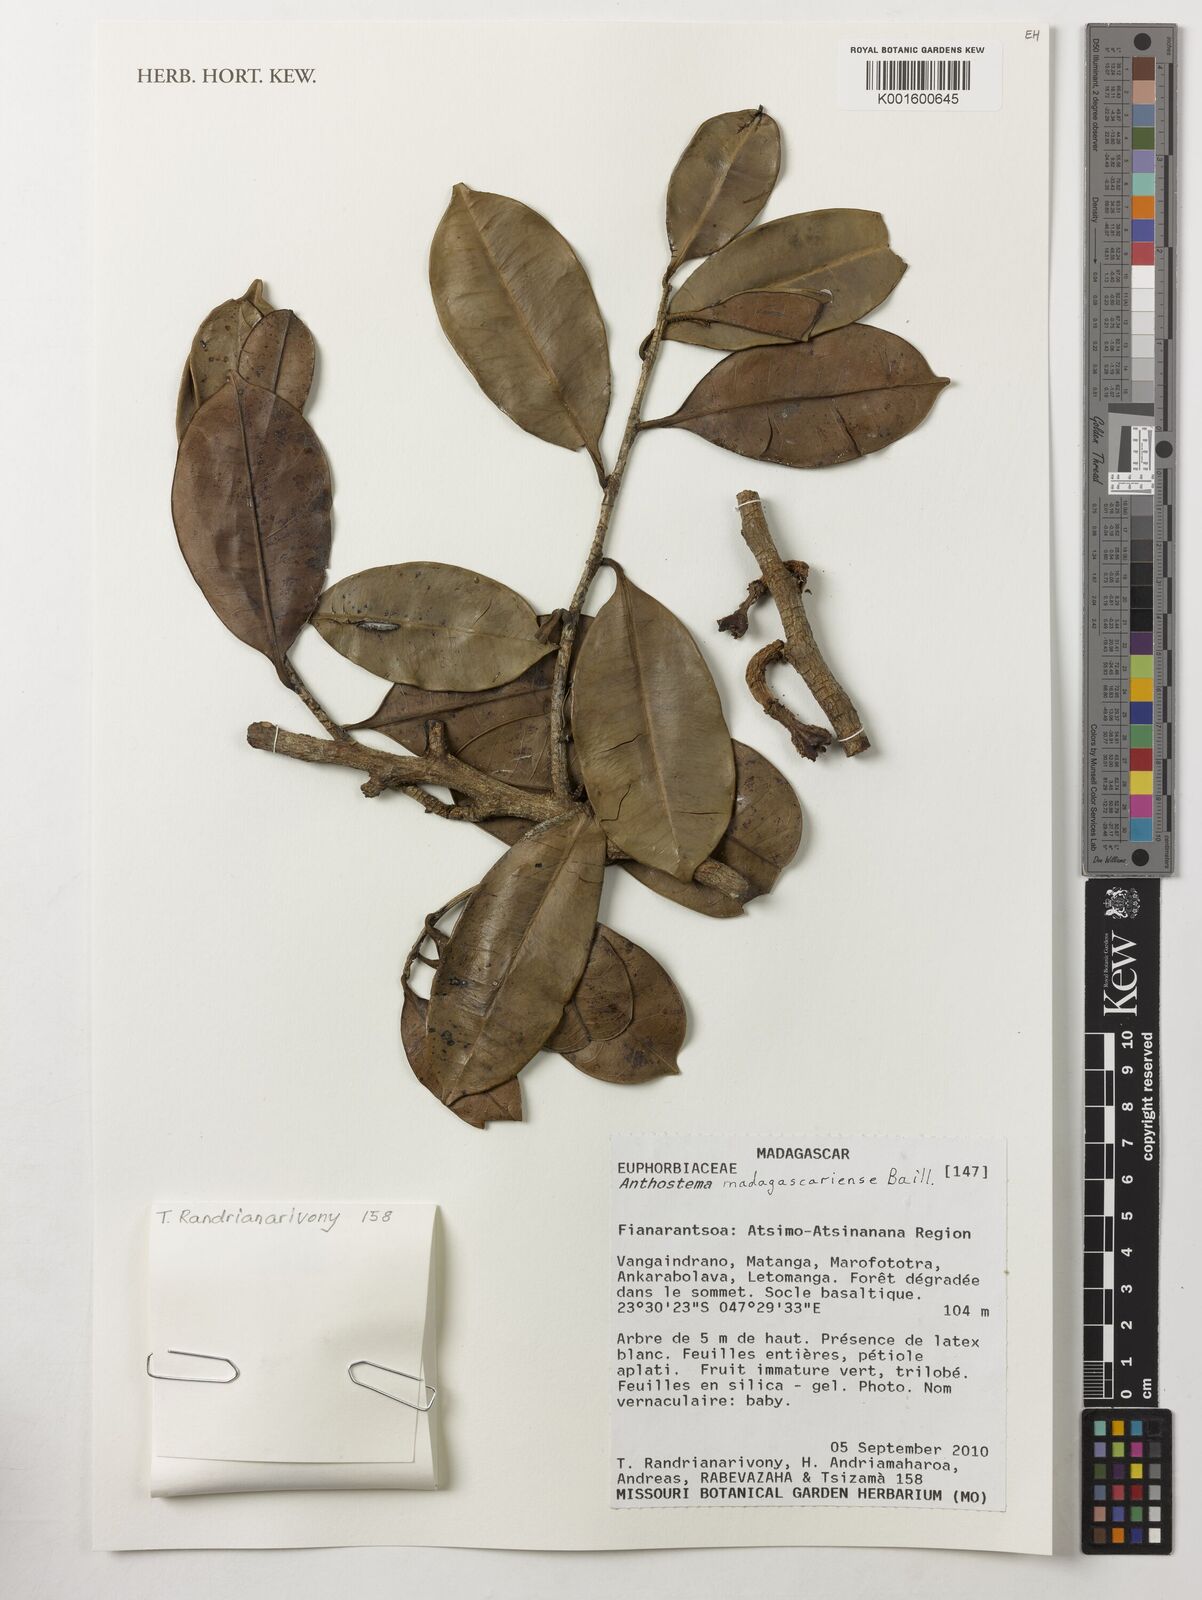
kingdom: Plantae
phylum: Tracheophyta
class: Magnoliopsida
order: Malpighiales
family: Euphorbiaceae
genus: Anthostema
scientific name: Anthostema madagascariense
